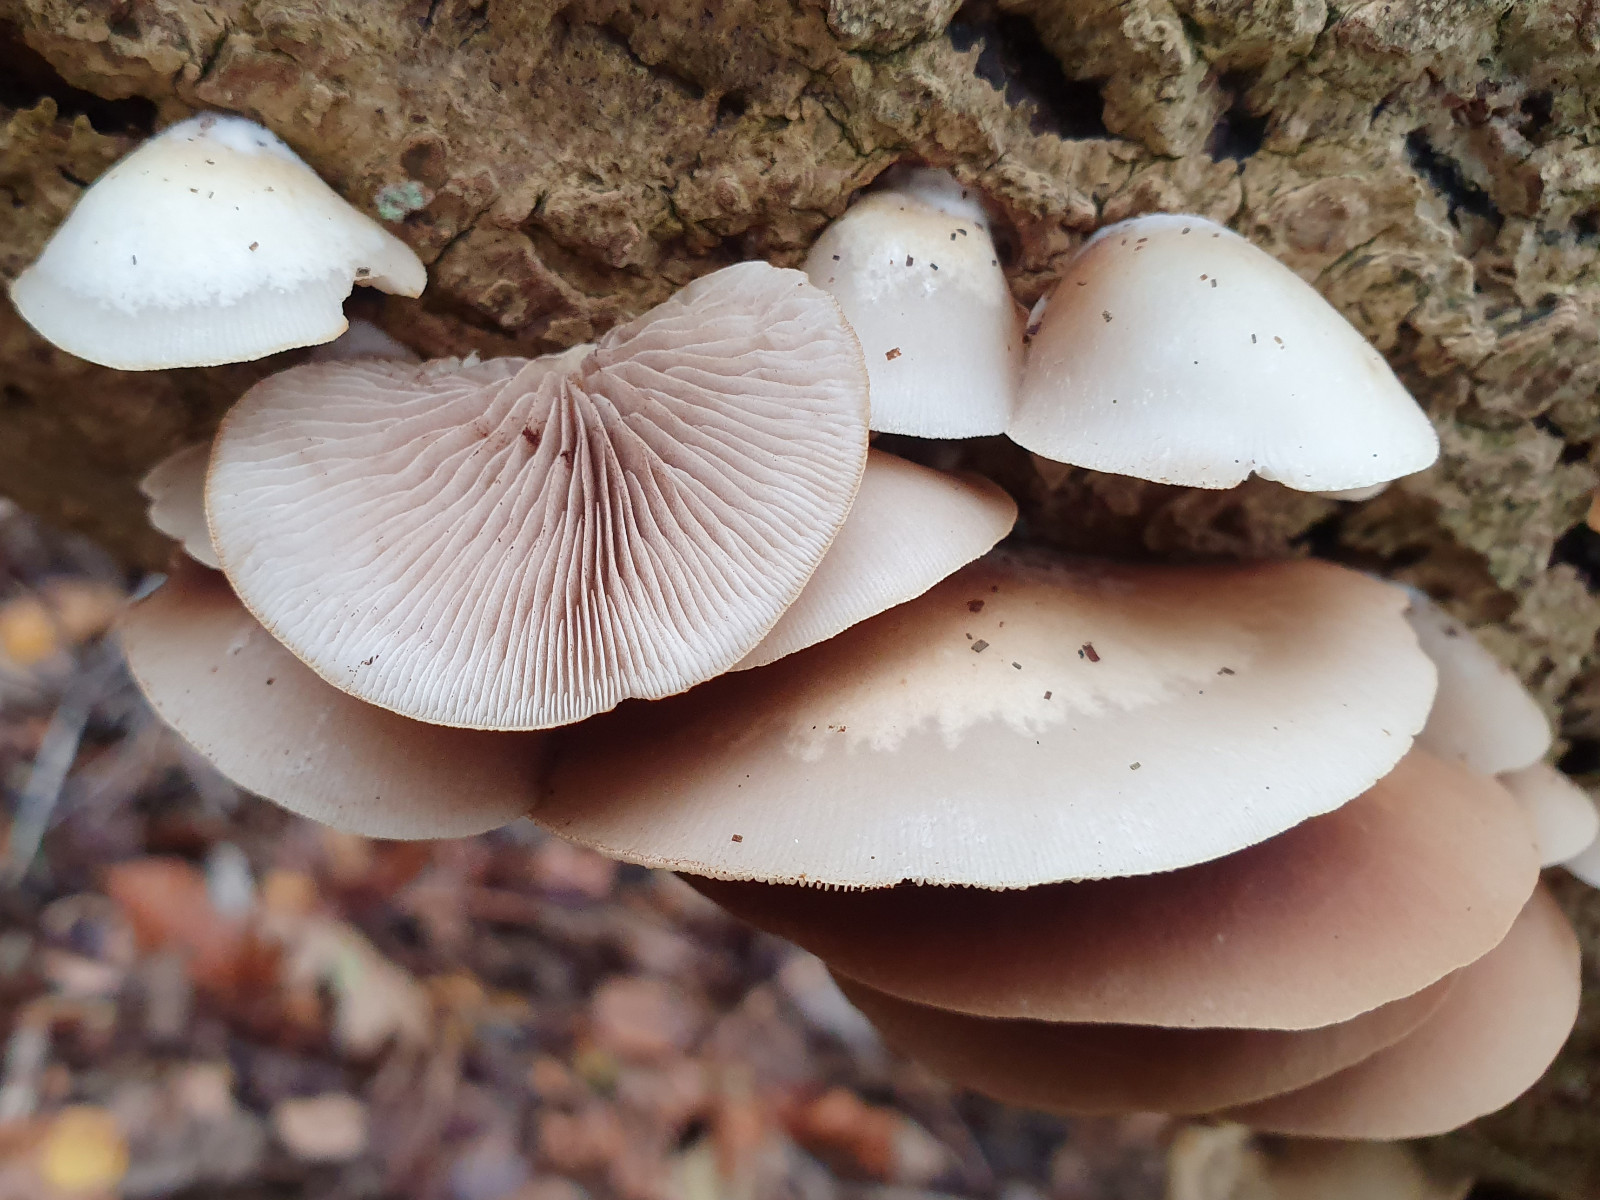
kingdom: Fungi
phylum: Basidiomycota
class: Agaricomycetes
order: Agaricales
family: Crepidotaceae
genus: Crepidotus
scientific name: Crepidotus mollis
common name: blød muslingesvamp
